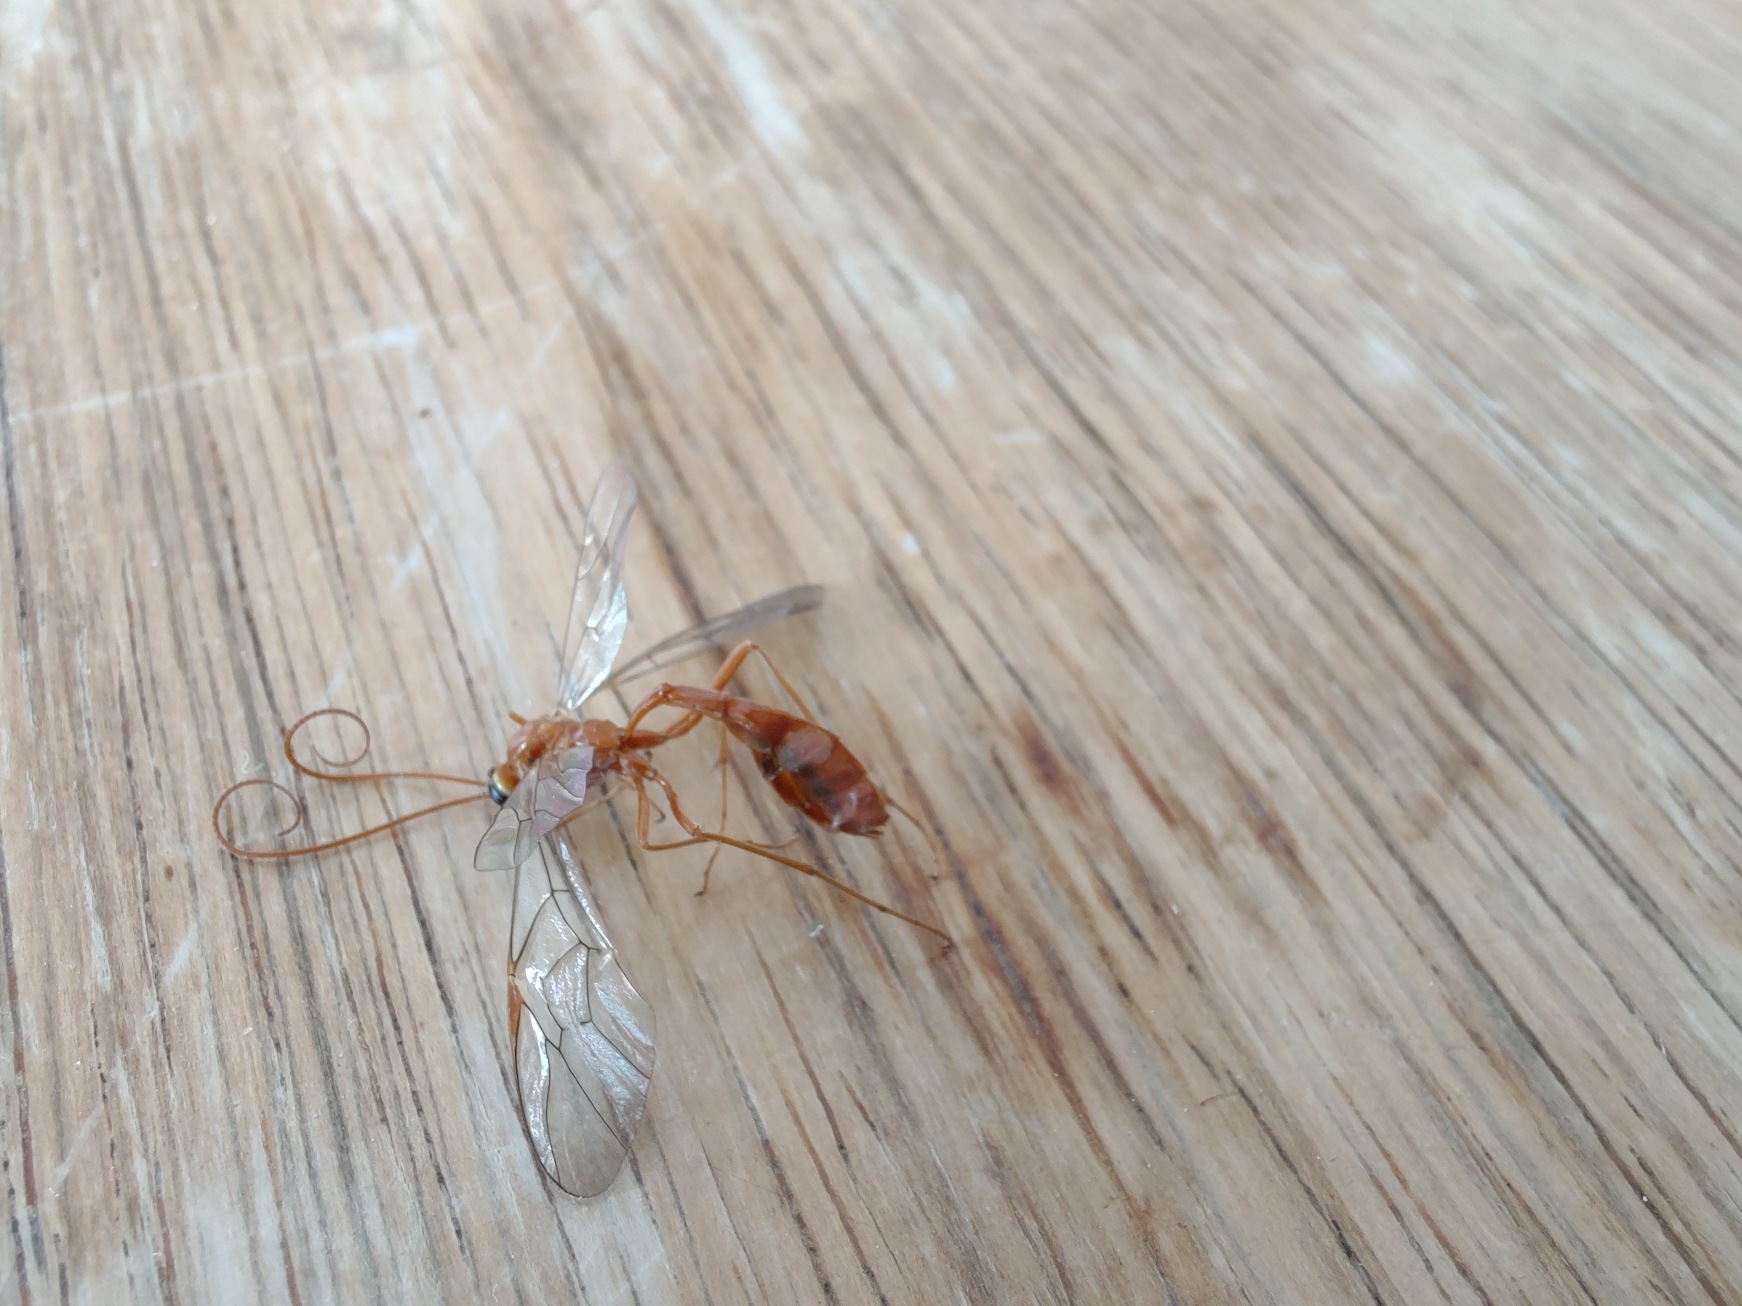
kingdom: Animalia
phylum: Arthropoda
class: Insecta
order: Hymenoptera
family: Ichneumonidae
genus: Ophion
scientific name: Ophion
